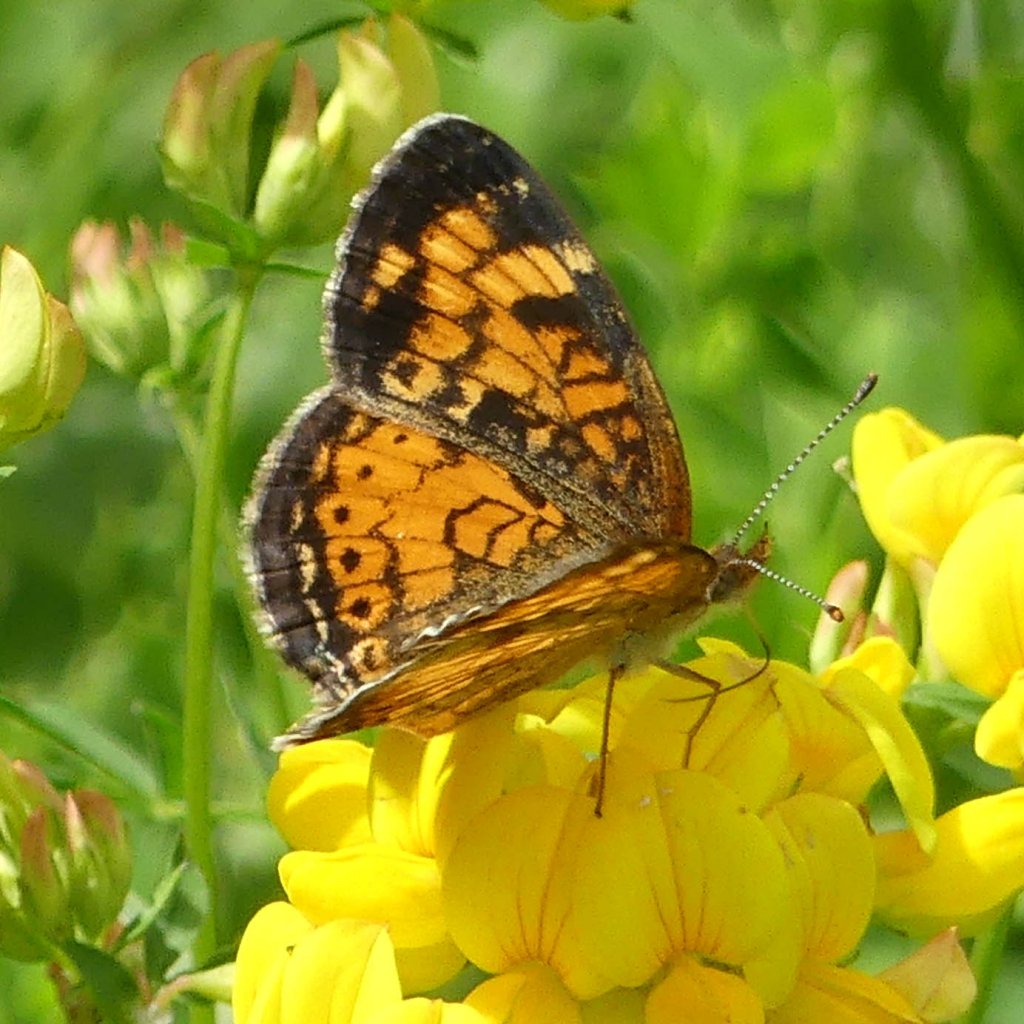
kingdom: Animalia
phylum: Arthropoda
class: Insecta
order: Lepidoptera
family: Nymphalidae
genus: Phyciodes
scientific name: Phyciodes tharos
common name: Northern Crescent
